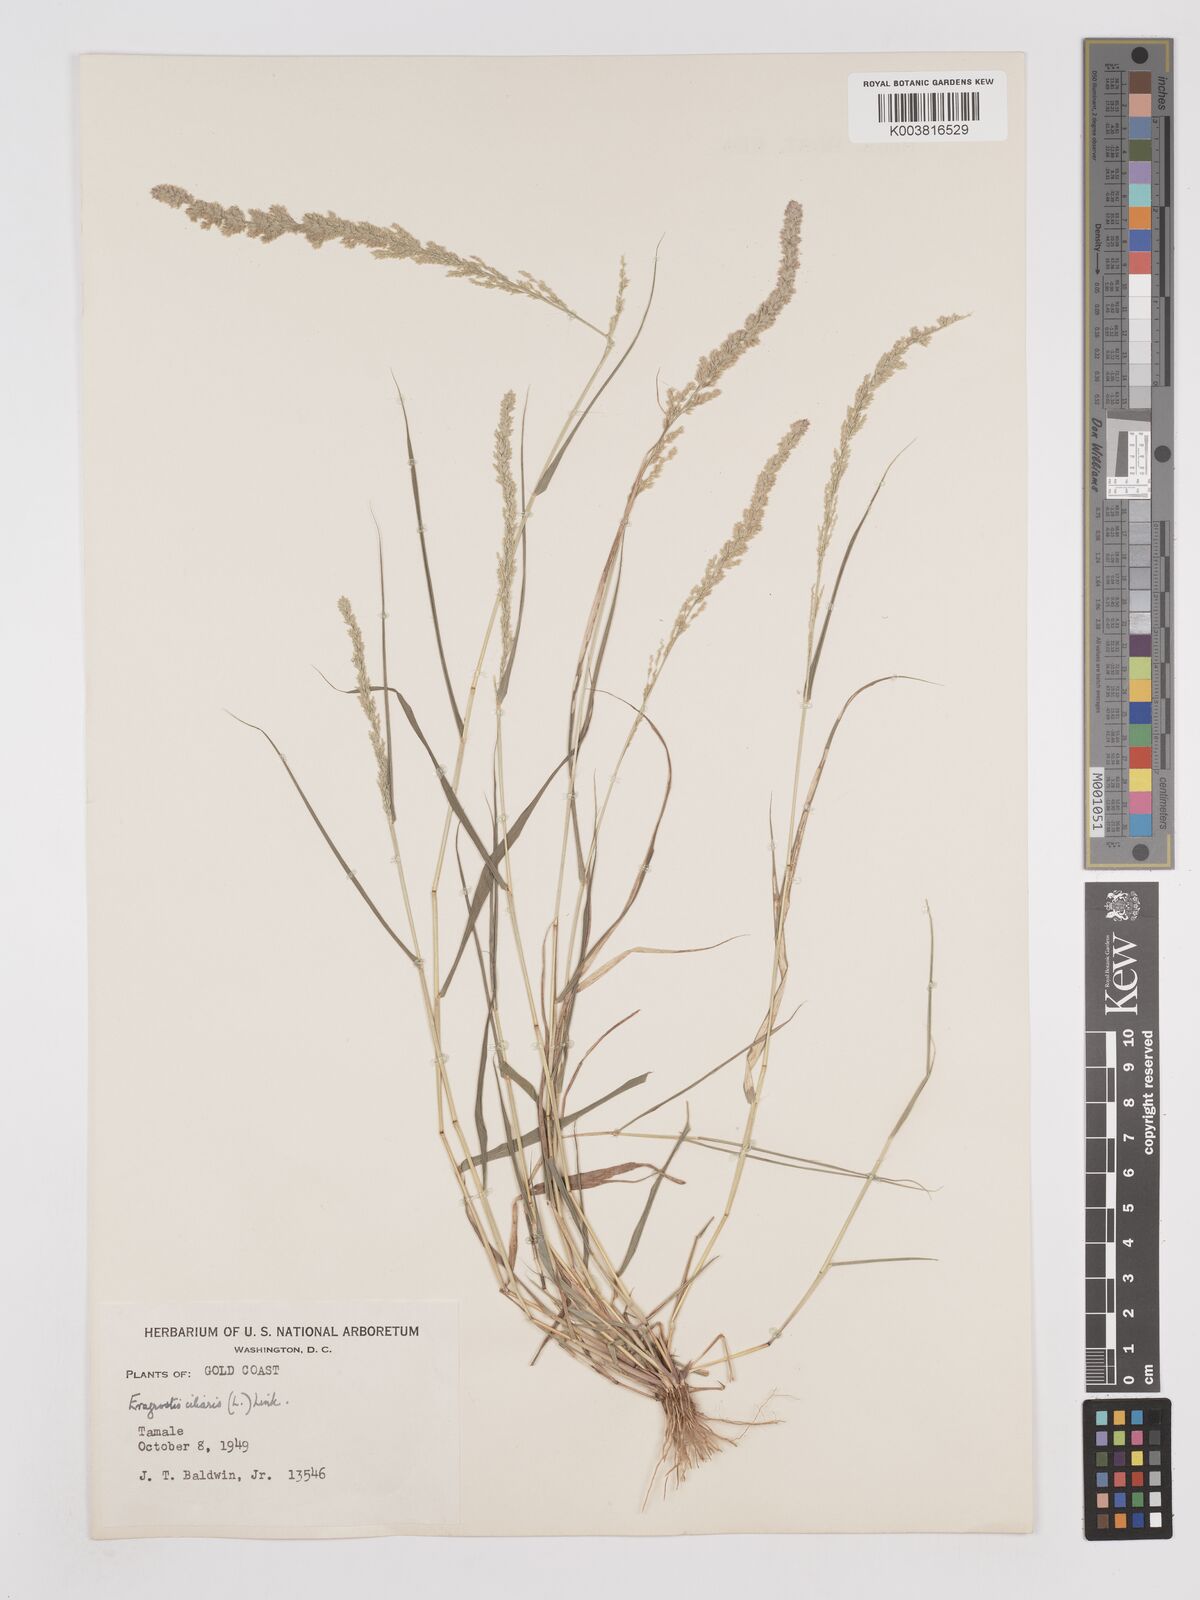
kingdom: Plantae
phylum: Tracheophyta
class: Liliopsida
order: Poales
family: Poaceae
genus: Eragrostis
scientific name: Eragrostis ciliaris
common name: Gophertail lovegrass
